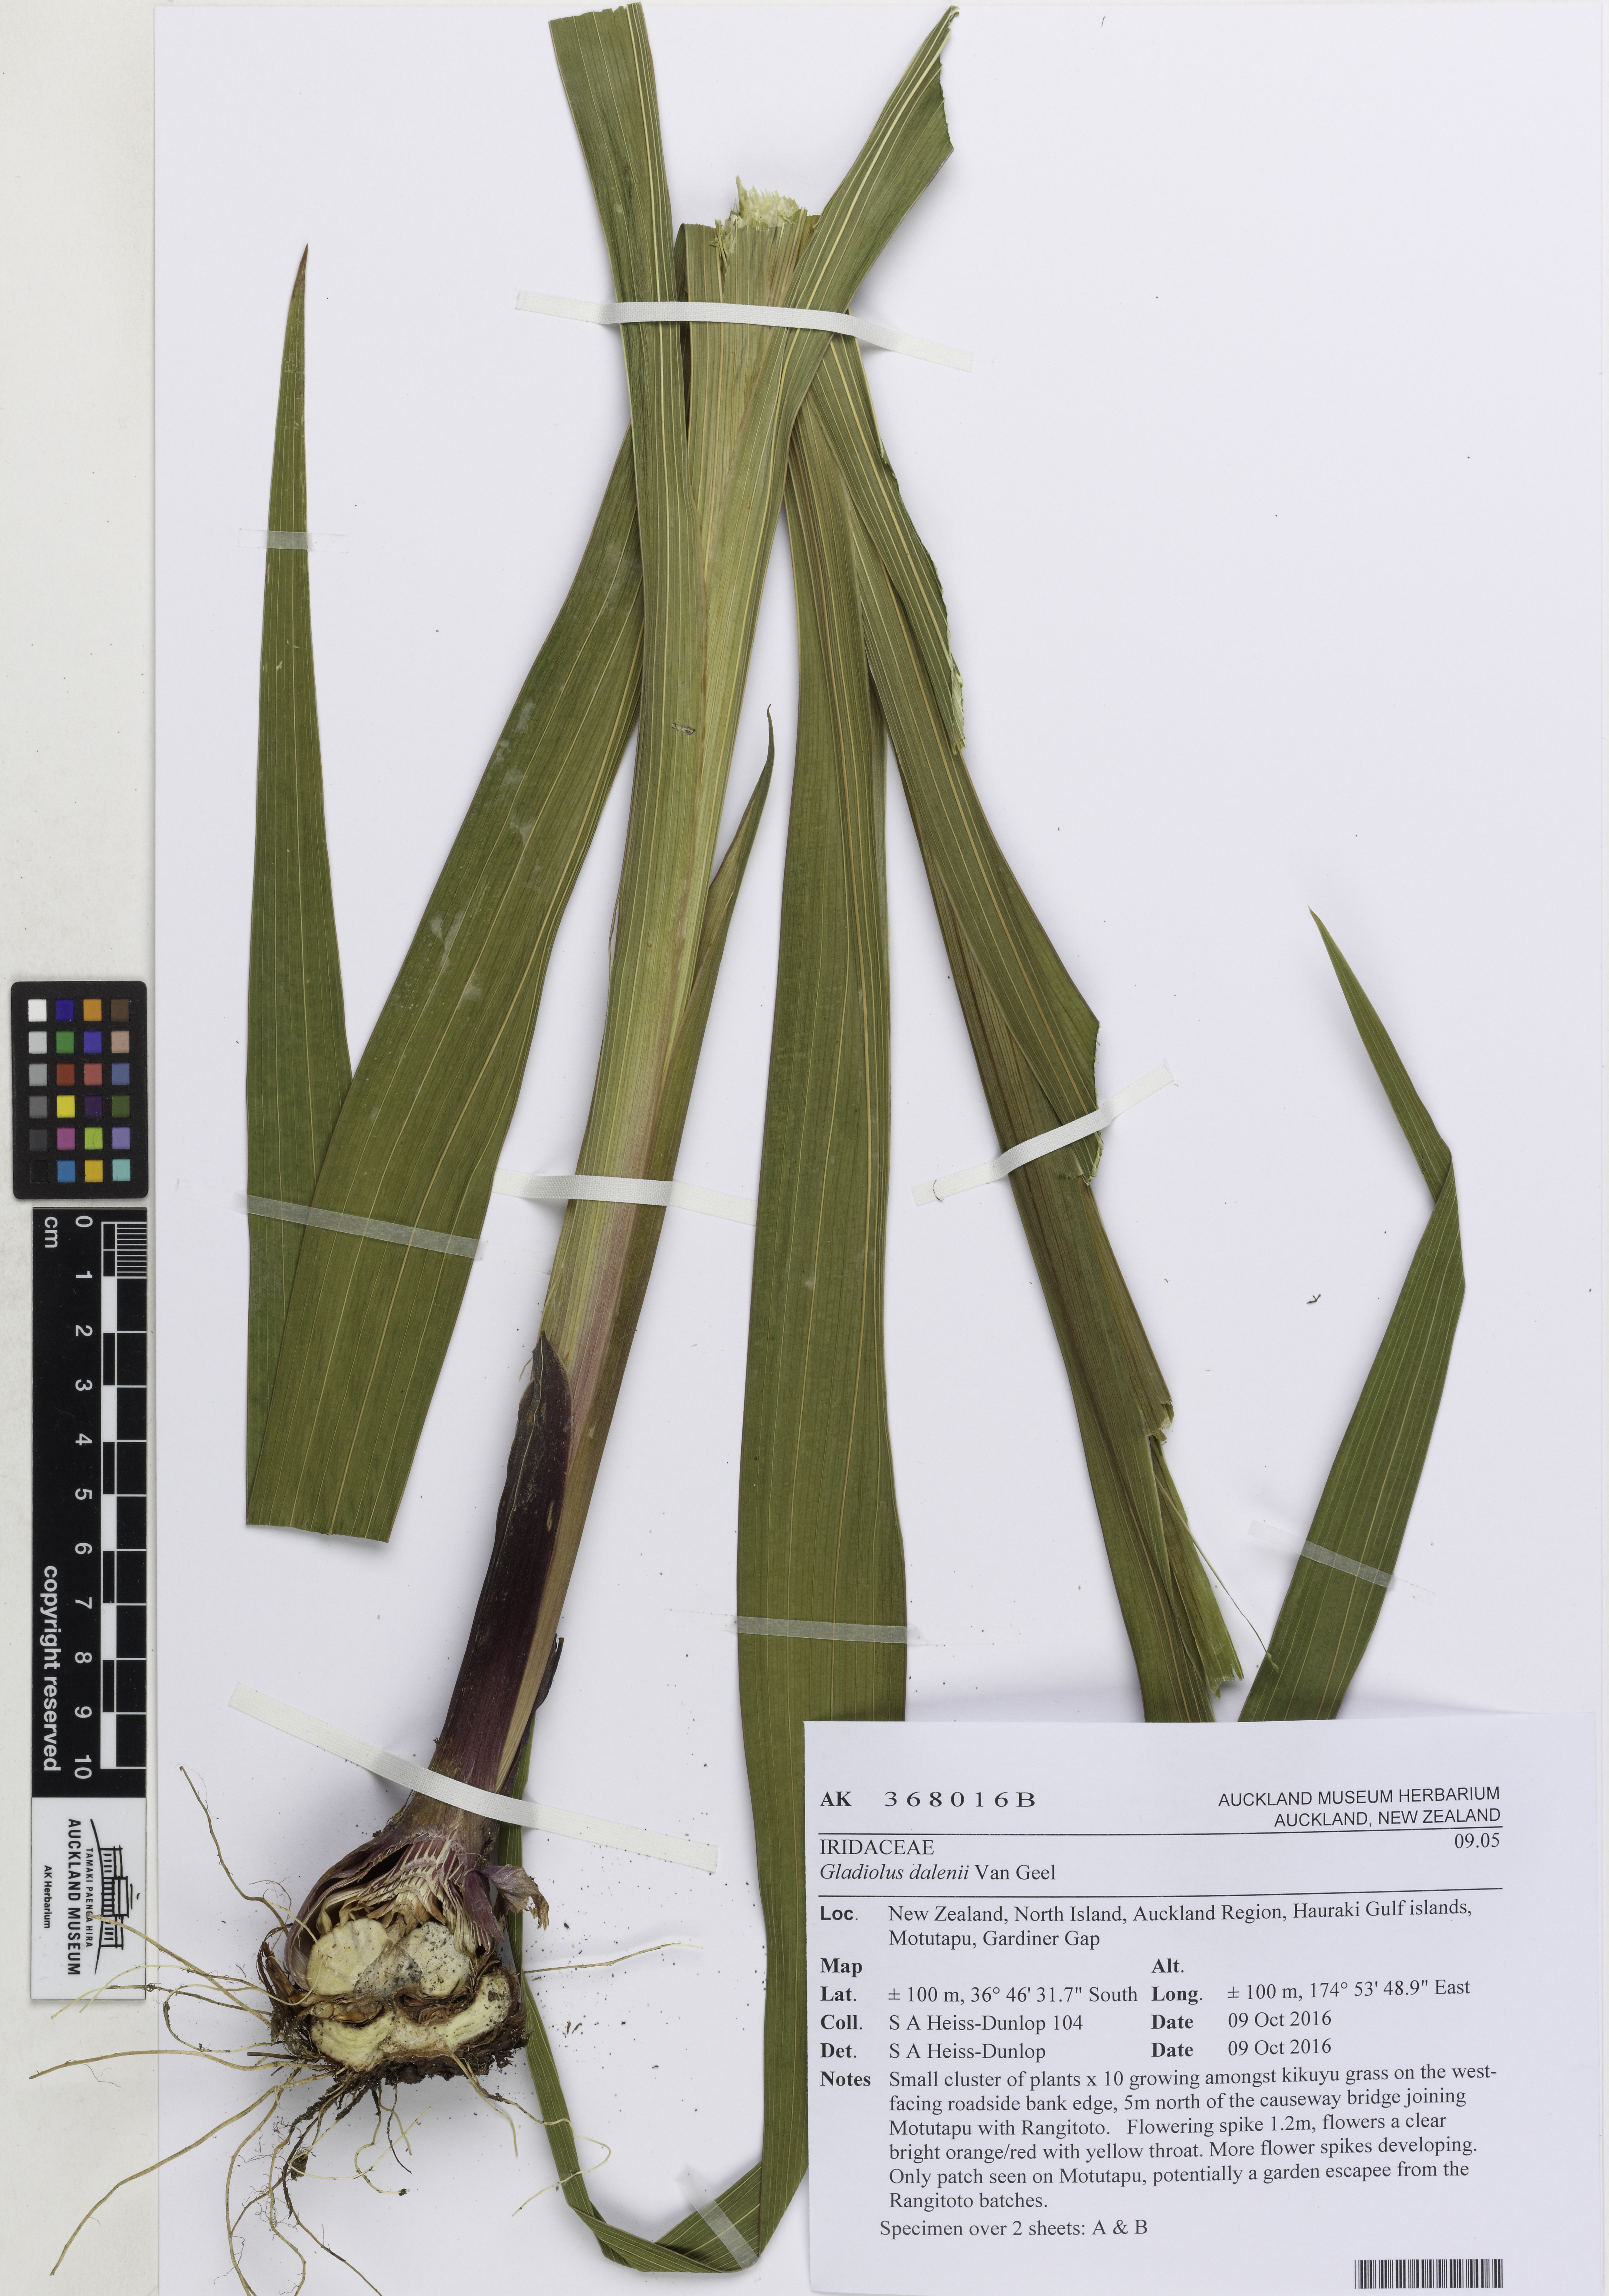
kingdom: Plantae
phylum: Tracheophyta
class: Liliopsida
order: Asparagales
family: Iridaceae
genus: Gladiolus
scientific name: Gladiolus dalenii
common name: Cornflag
